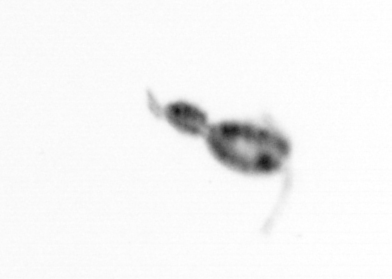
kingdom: Animalia
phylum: Arthropoda
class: Copepoda
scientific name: Copepoda
